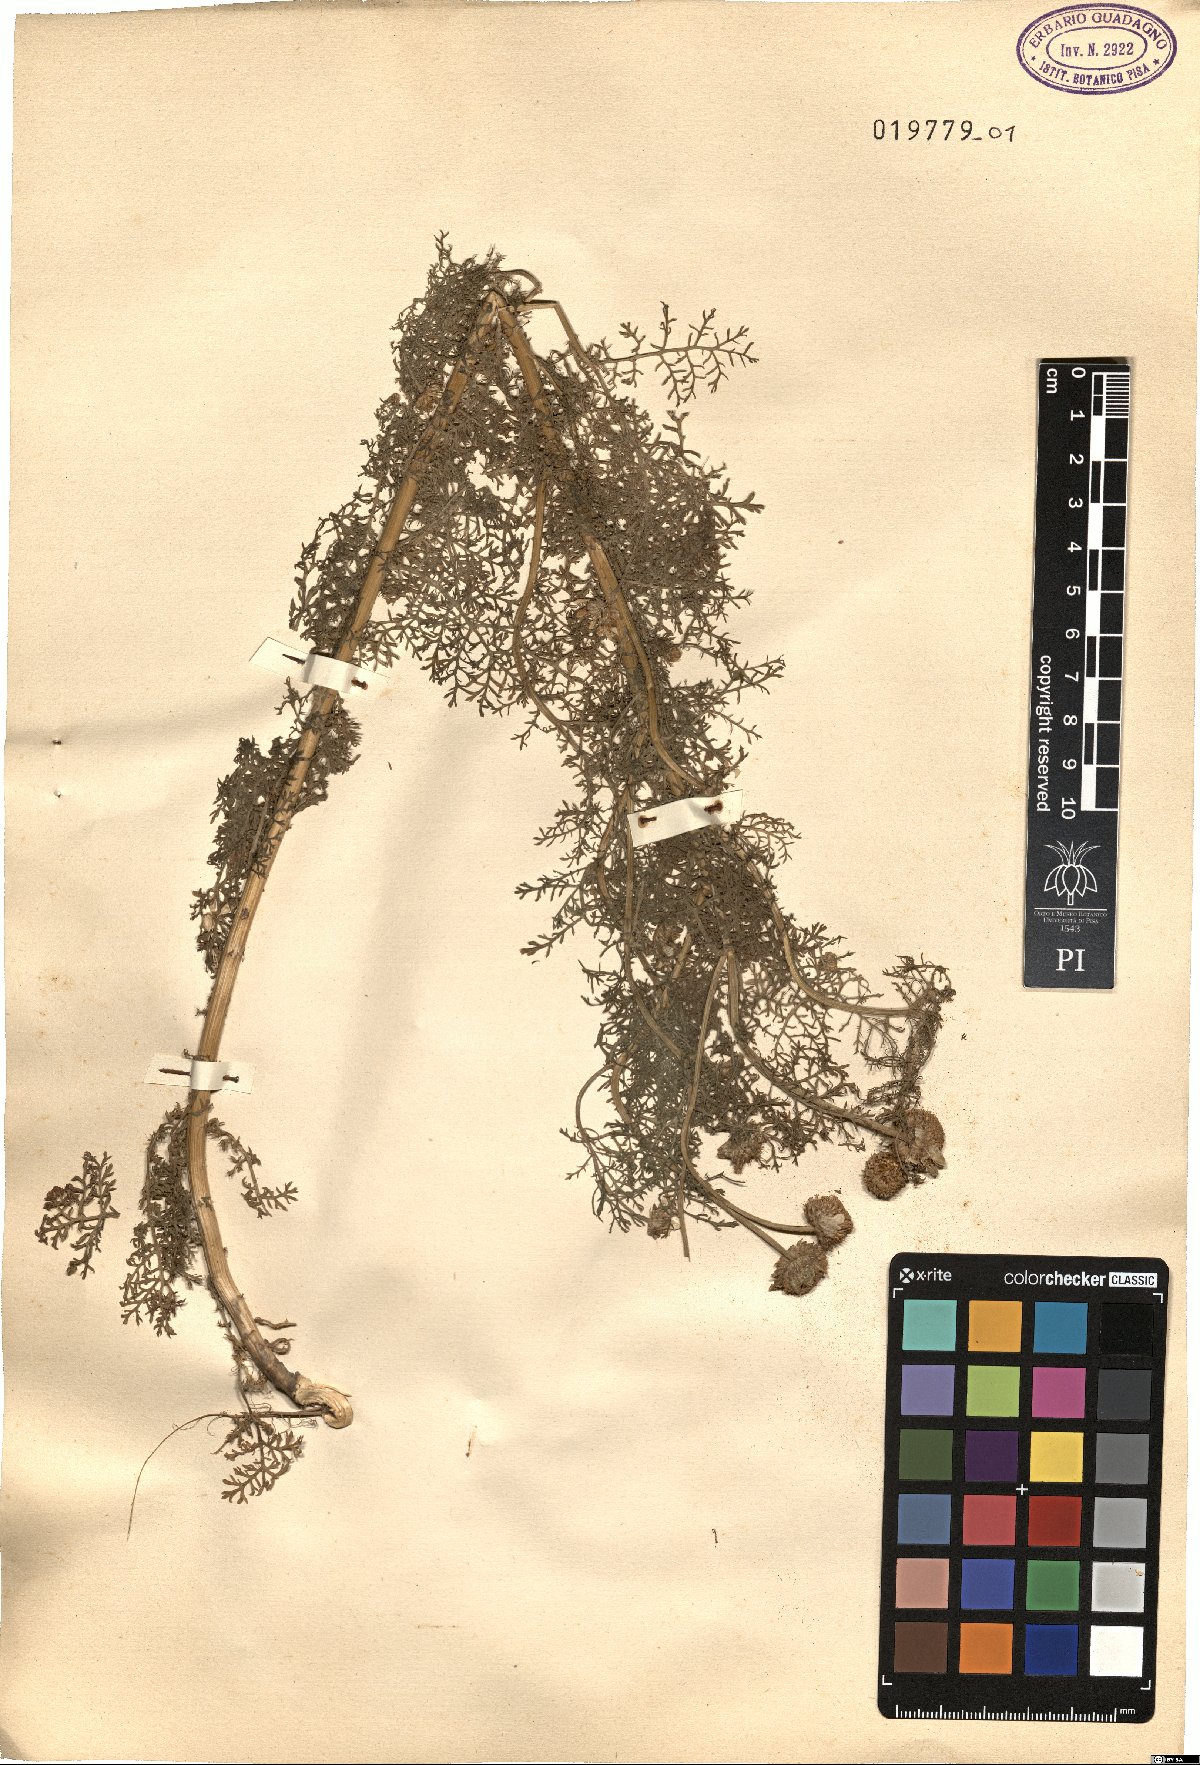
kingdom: Plantae
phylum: Tracheophyta
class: Magnoliopsida
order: Asterales
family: Asteraceae
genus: Cota
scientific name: Cota segetalis
